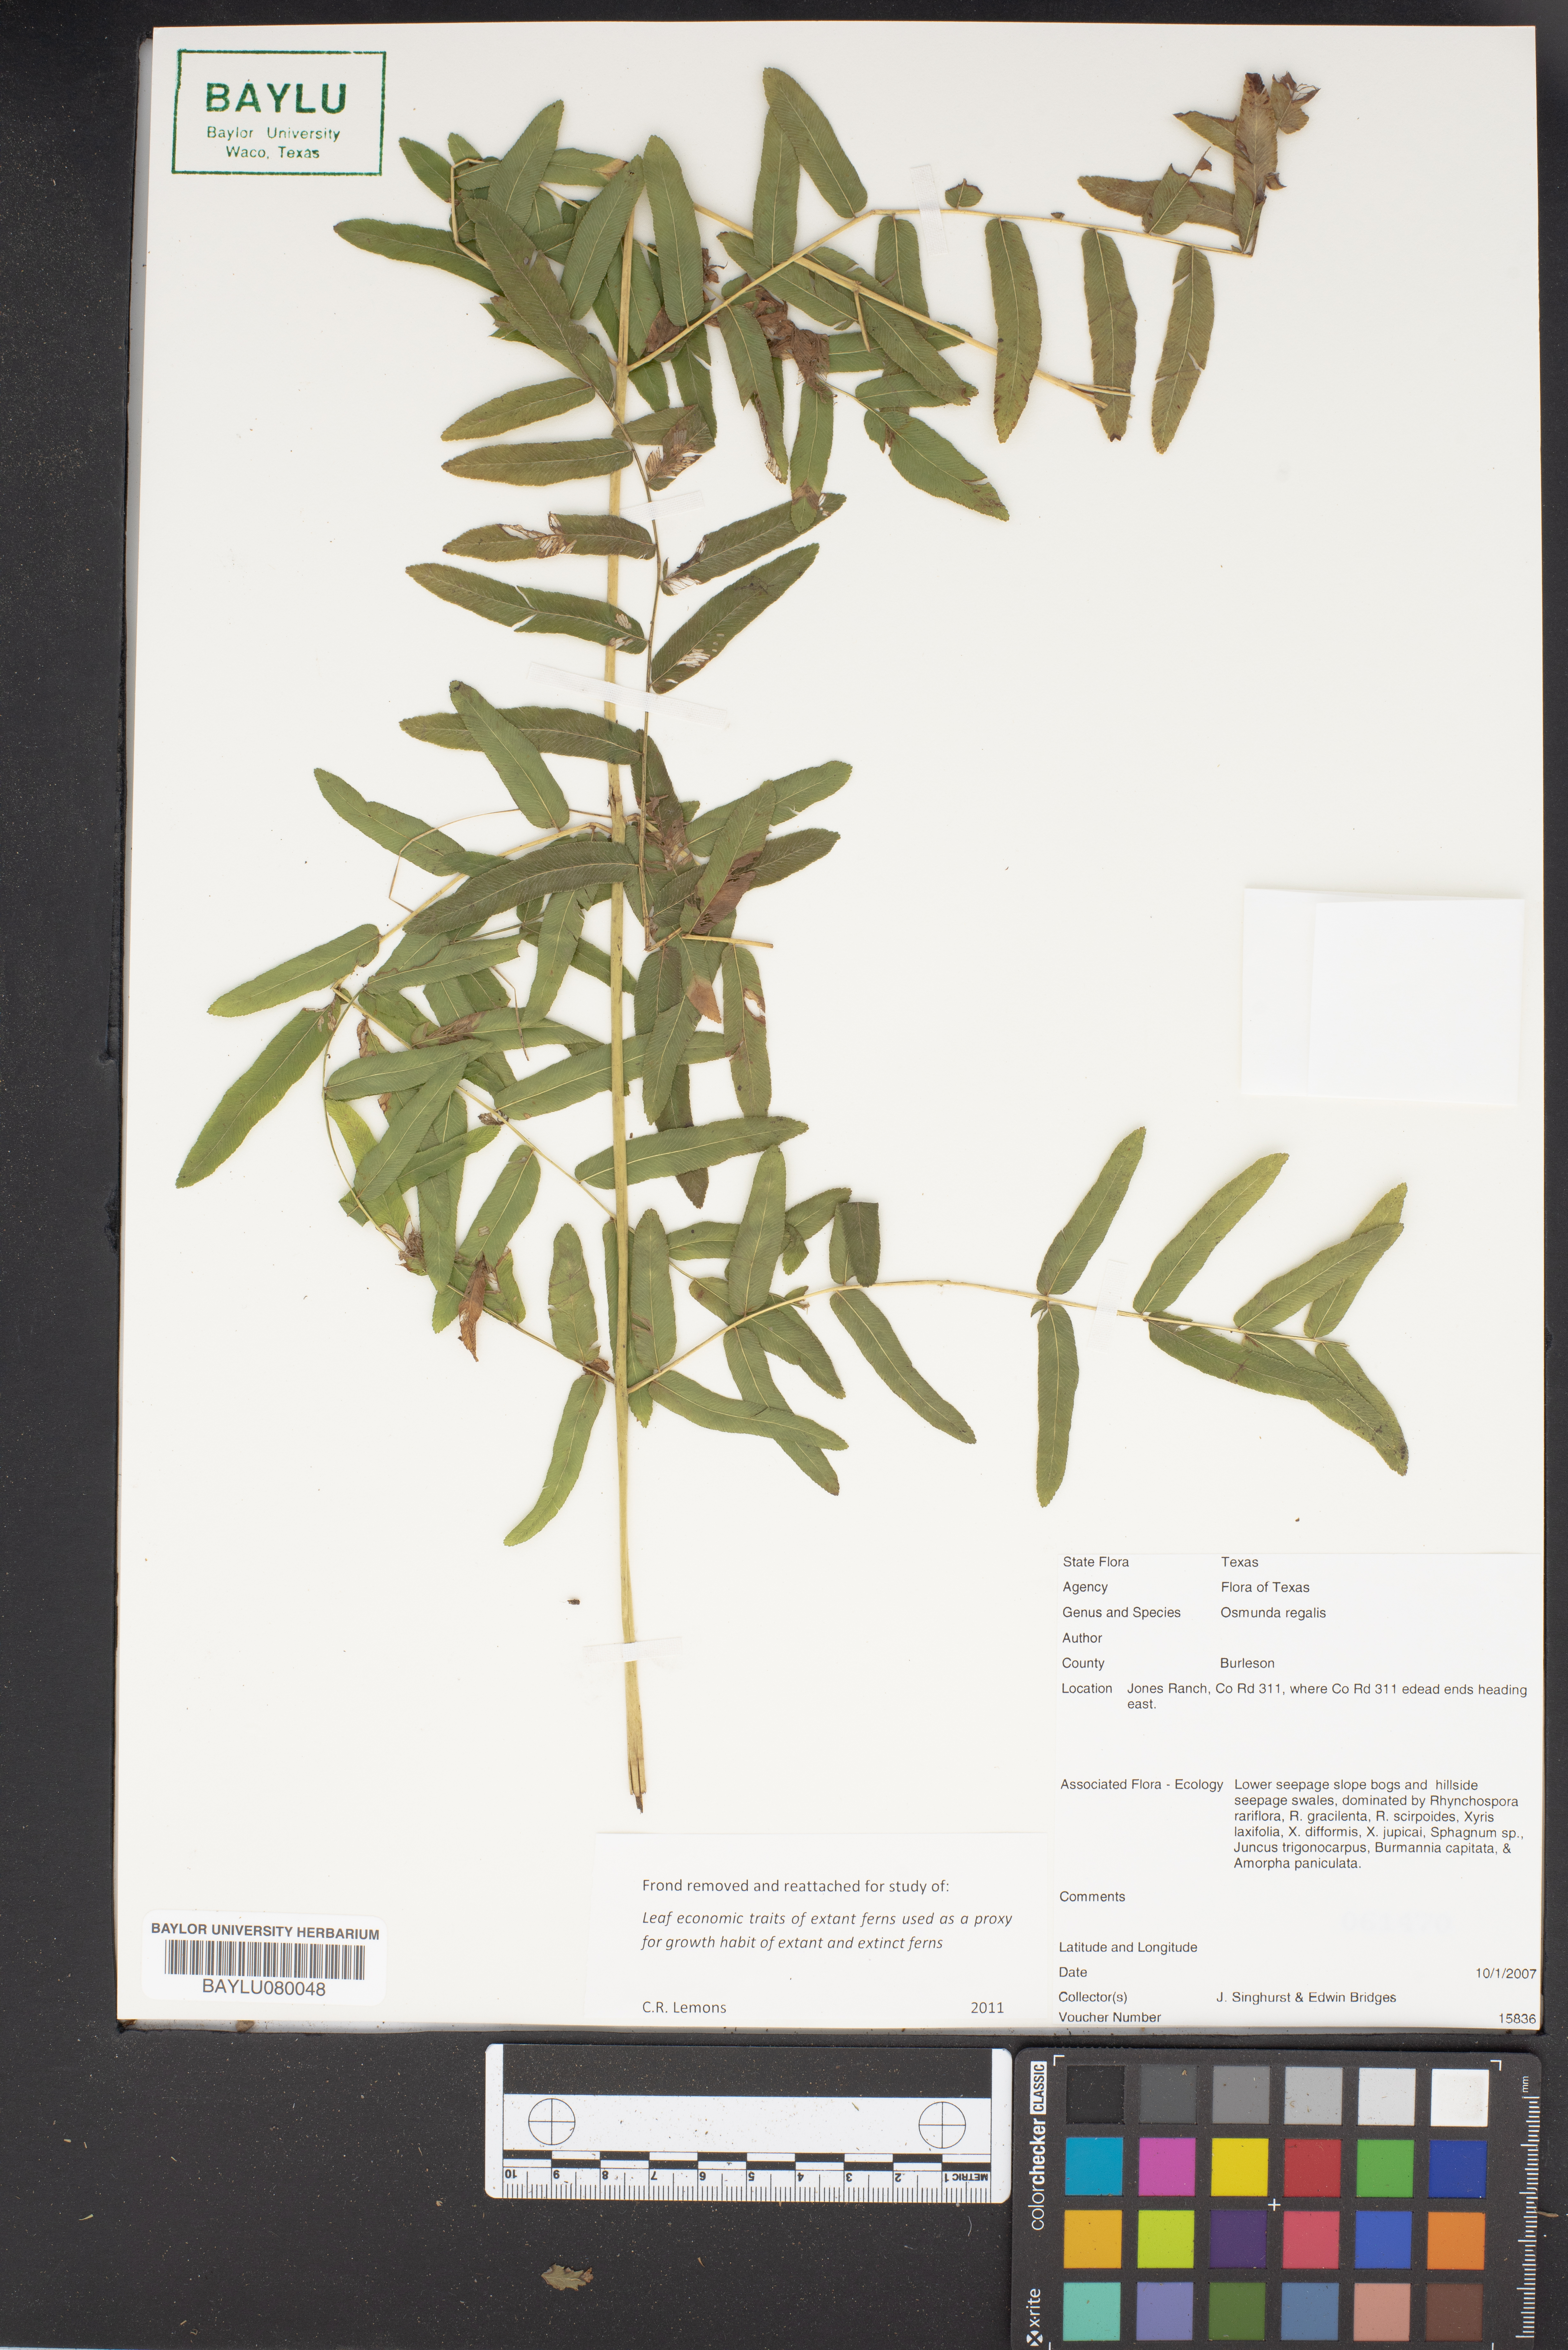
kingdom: Plantae
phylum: Tracheophyta
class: Polypodiopsida
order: Osmundales
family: Osmundaceae
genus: Osmunda
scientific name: Osmunda regalis
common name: Royal fern
